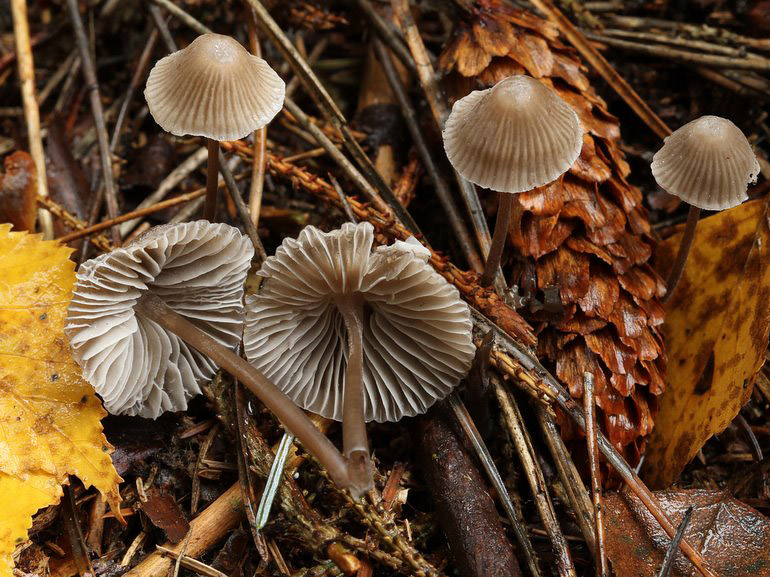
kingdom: Fungi
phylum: Basidiomycota
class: Agaricomycetes
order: Agaricales
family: Mycenaceae
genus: Mycena
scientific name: Mycena leptocephala
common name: klor-huesvamp
